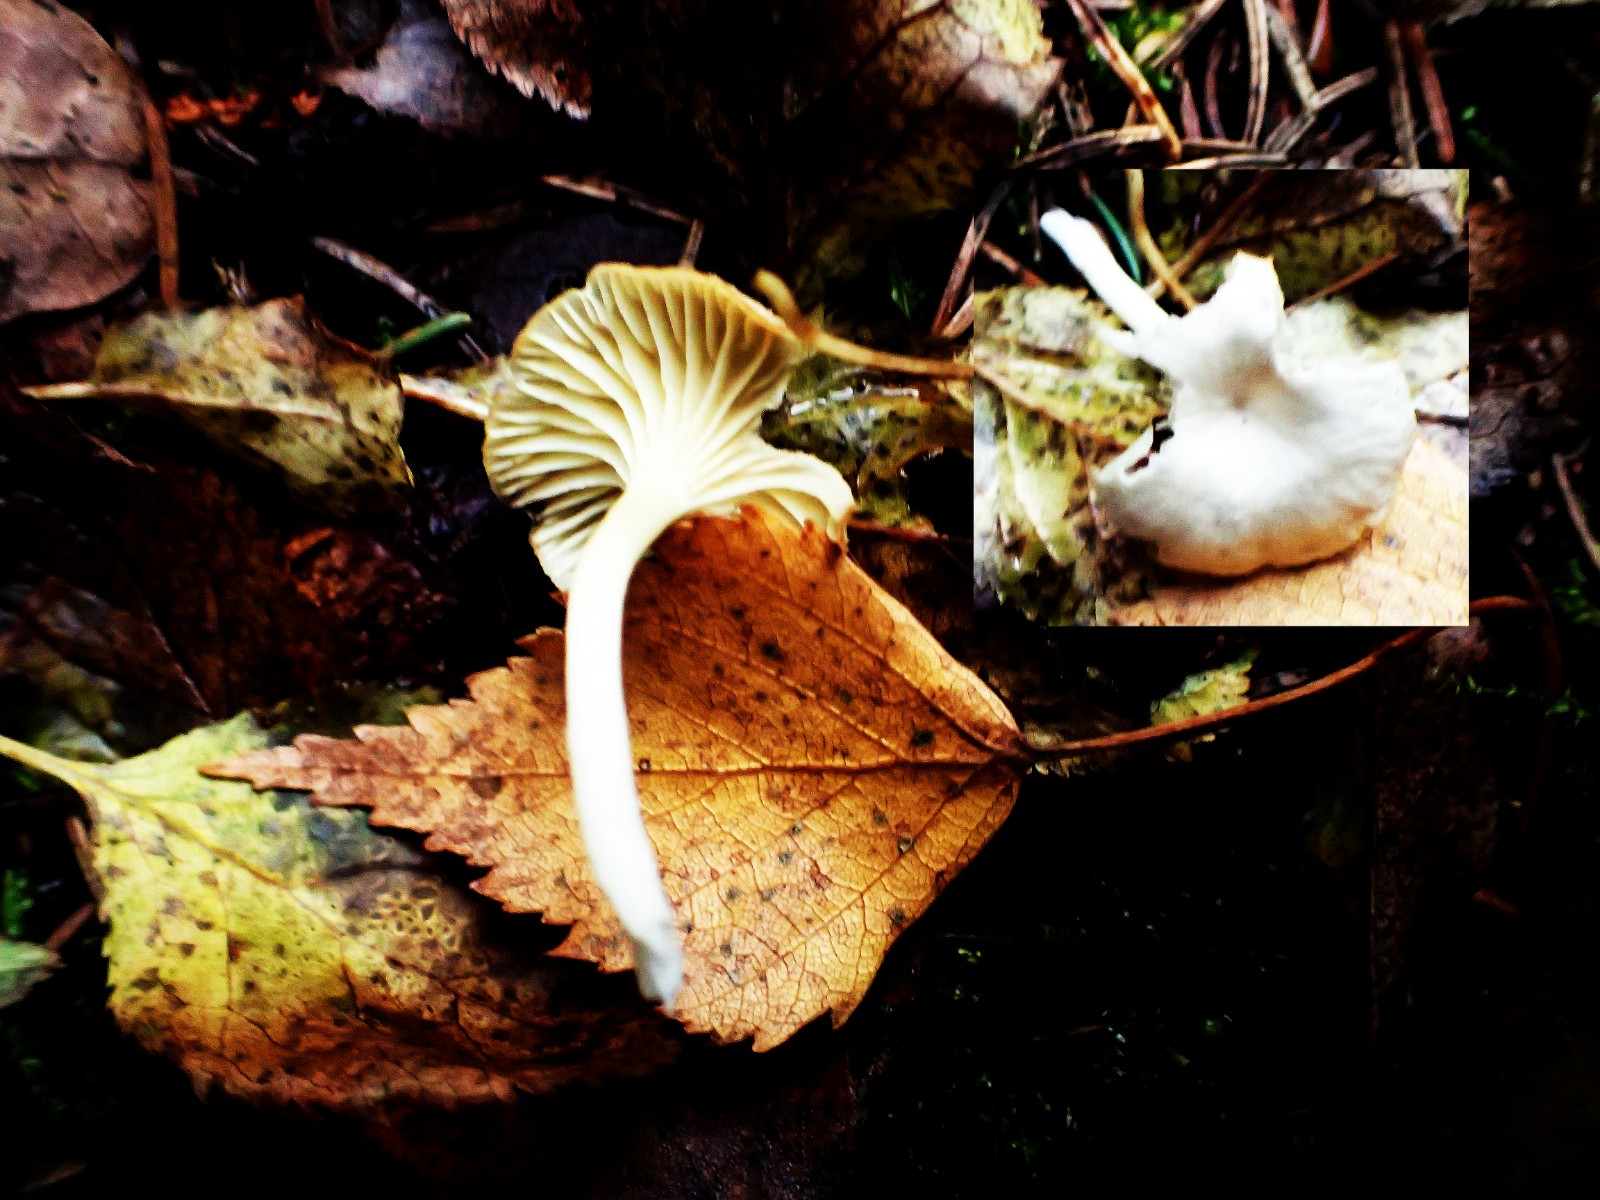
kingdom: Fungi
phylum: Basidiomycota
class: Agaricomycetes
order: Agaricales
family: Hygrophoraceae
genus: Chrysomphalina
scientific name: Chrysomphalina grossula
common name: stød-gyldenblad
